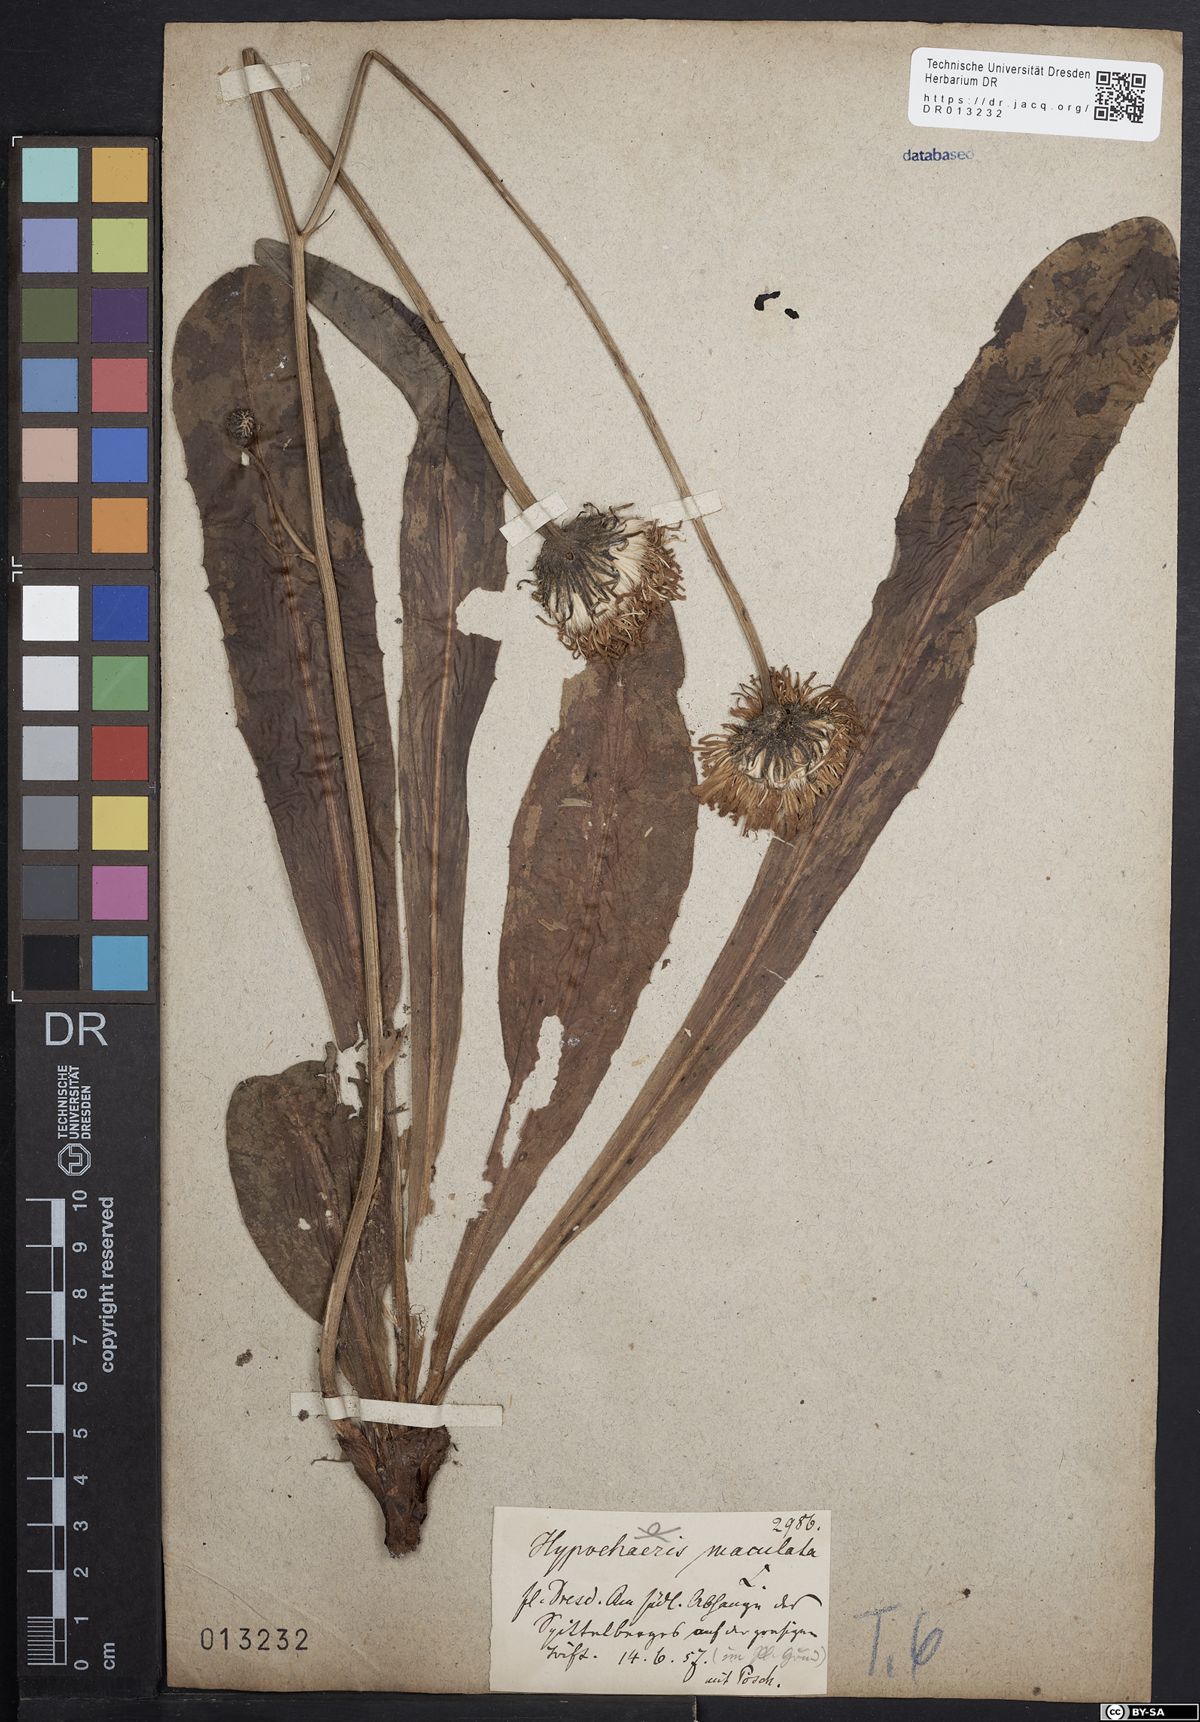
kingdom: Plantae
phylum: Tracheophyta
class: Magnoliopsida
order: Asterales
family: Asteraceae
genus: Trommsdorffia
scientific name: Trommsdorffia maculata
